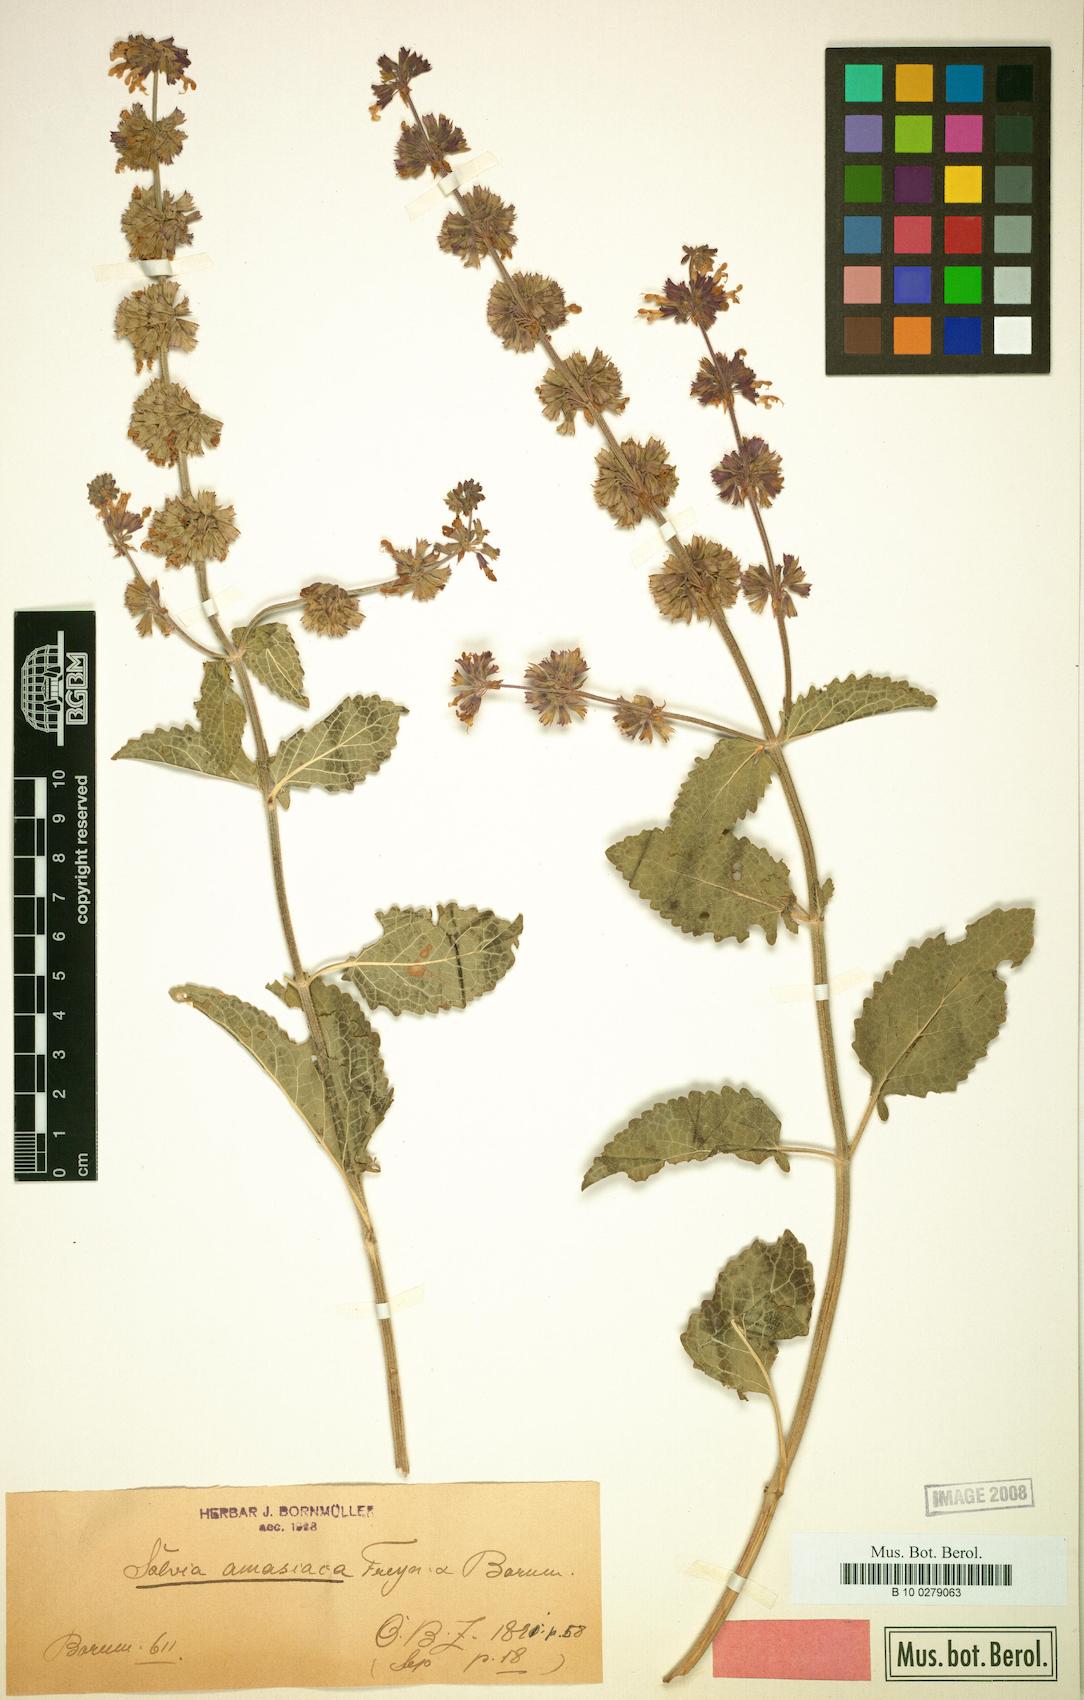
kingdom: Plantae
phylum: Tracheophyta
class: Magnoliopsida
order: Lamiales
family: Lamiaceae
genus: Salvia
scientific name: Salvia verticillata
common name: Whorled clary
